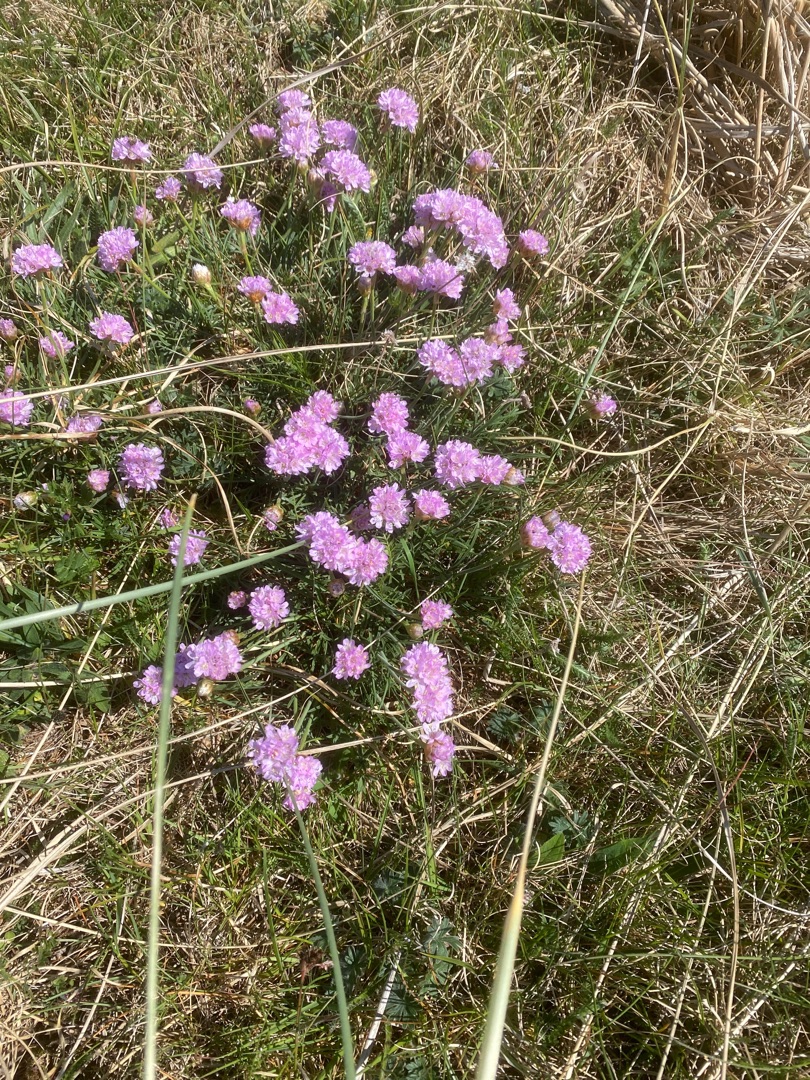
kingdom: Plantae
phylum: Tracheophyta
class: Magnoliopsida
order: Caryophyllales
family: Plumbaginaceae
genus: Armeria
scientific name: Armeria maritima
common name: Engelskgræs
